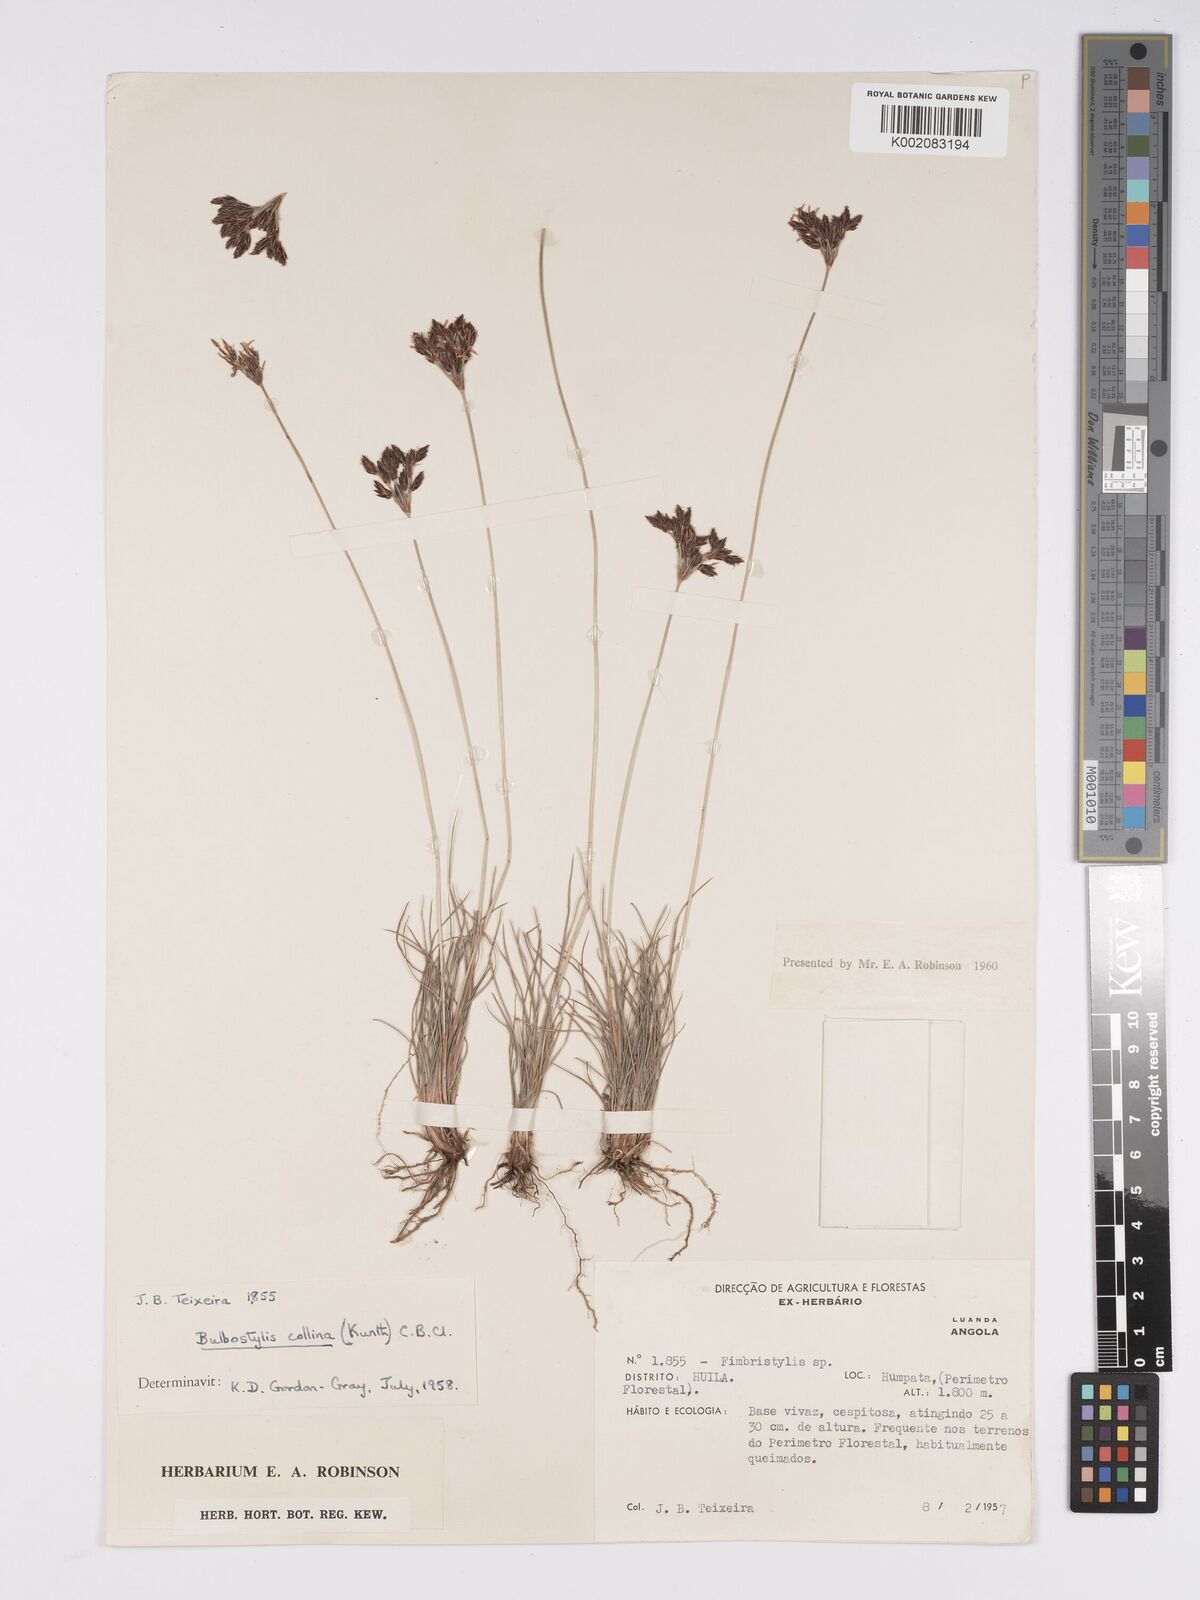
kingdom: Plantae
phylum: Tracheophyta
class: Liliopsida
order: Poales
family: Cyperaceae
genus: Bulbostylis
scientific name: Bulbostylis contexta
